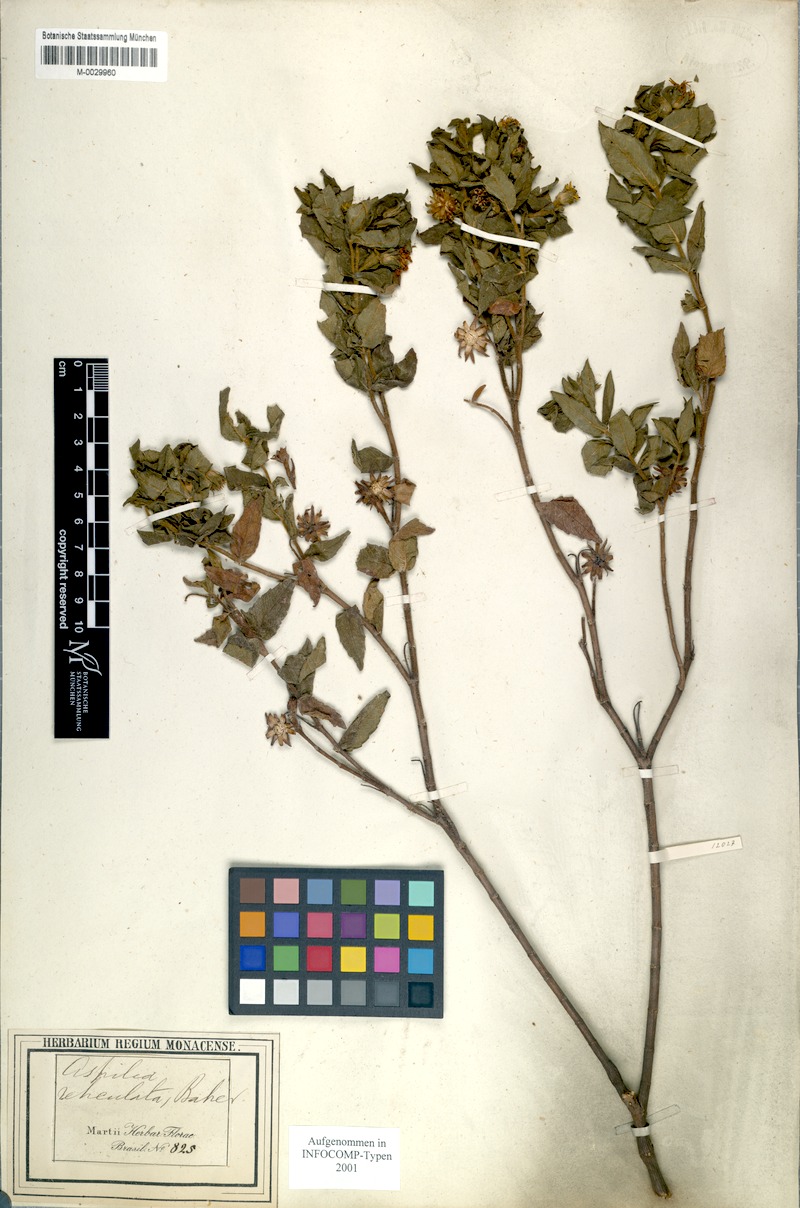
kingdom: Plantae
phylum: Tracheophyta
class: Magnoliopsida
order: Asterales
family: Asteraceae
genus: Wedelia
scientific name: Wedelia frioana
